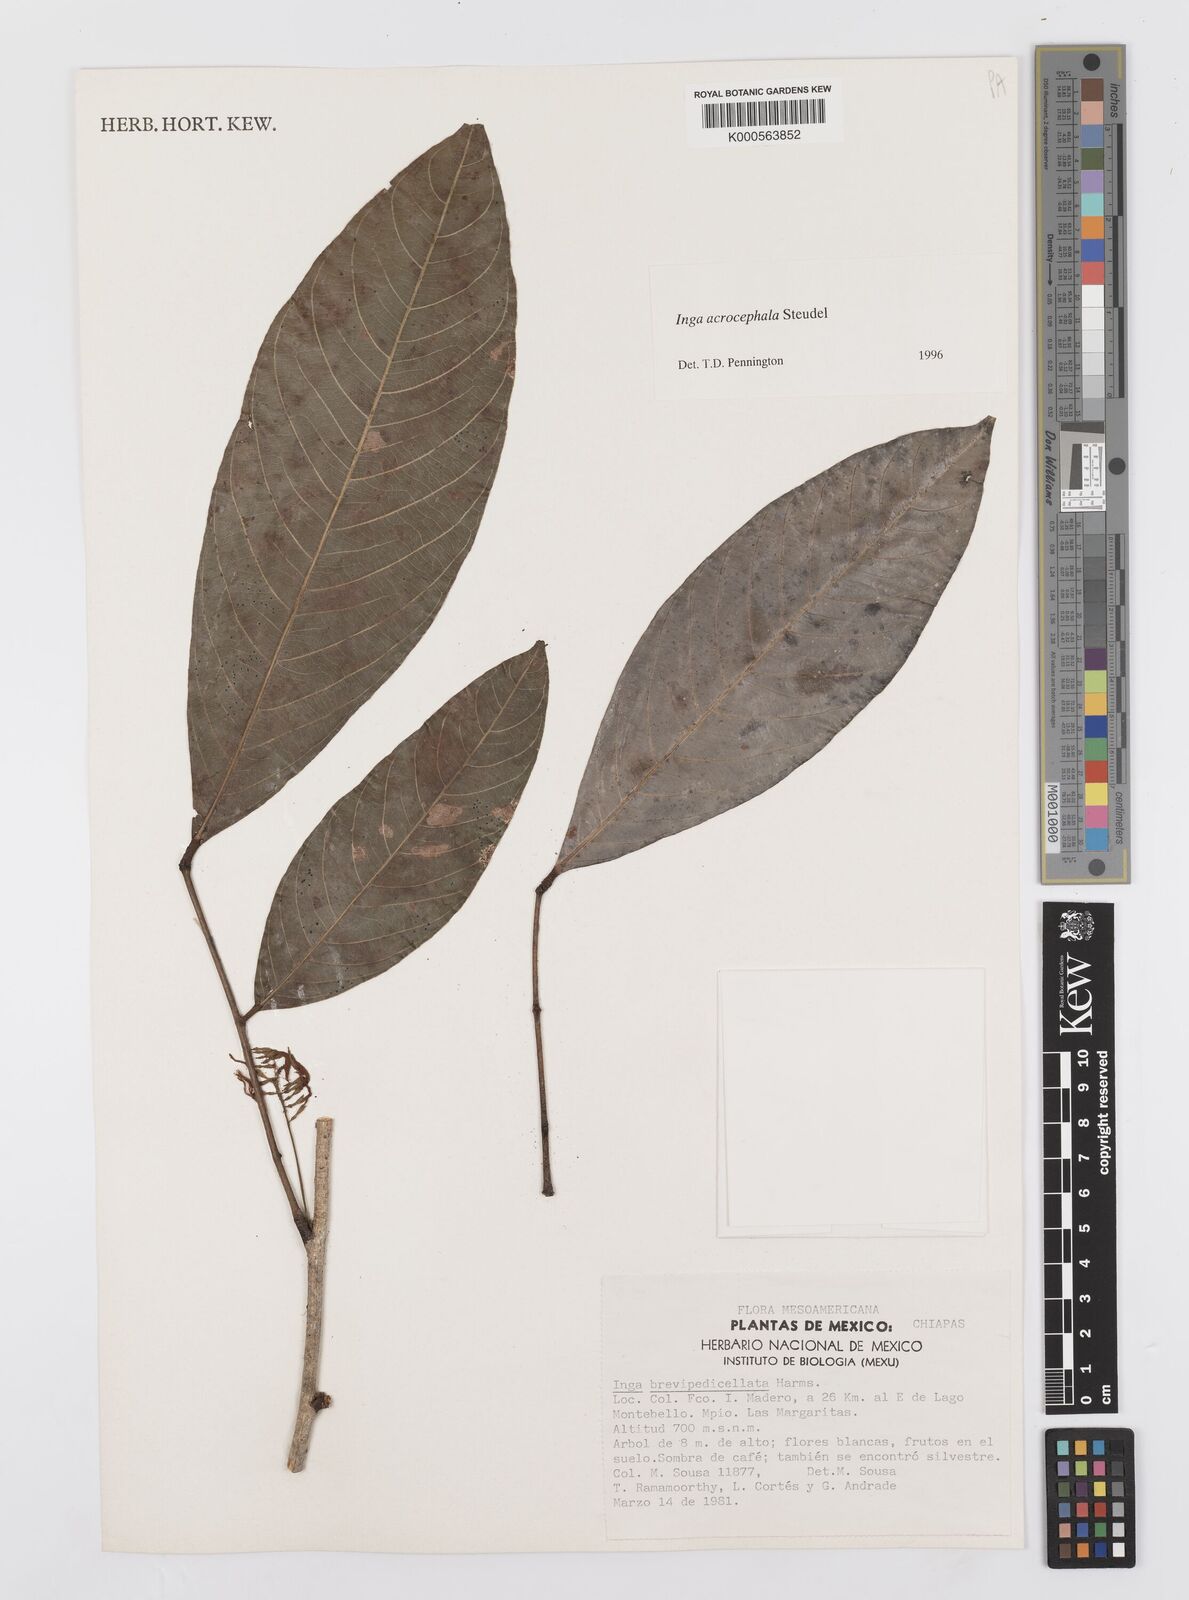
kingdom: Plantae
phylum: Tracheophyta
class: Magnoliopsida
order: Fabales
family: Fabaceae
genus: Inga
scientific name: Inga acrocephala
